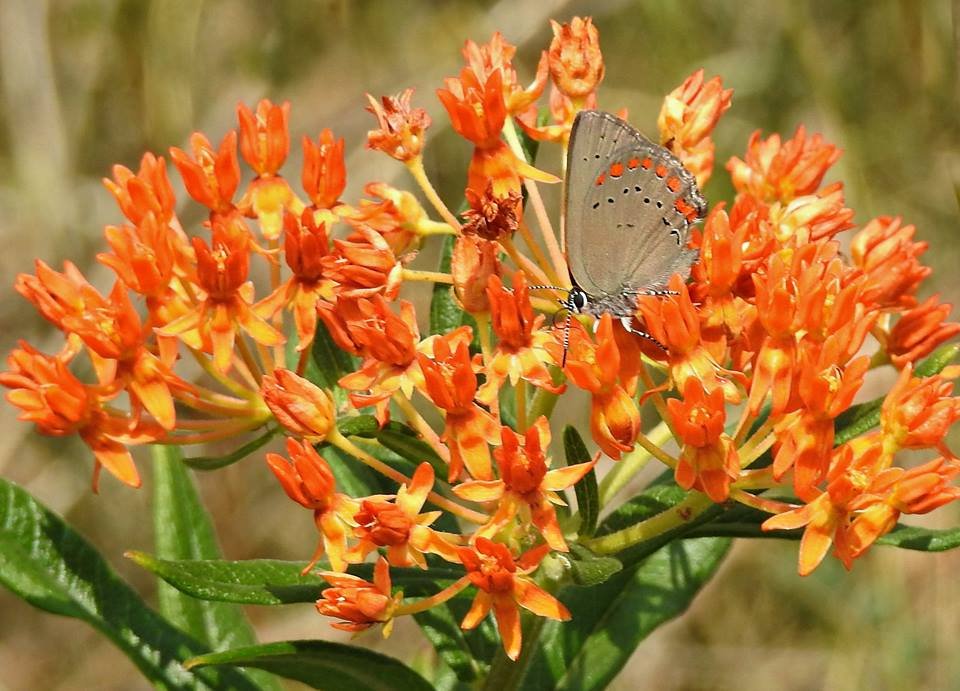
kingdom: Animalia
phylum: Arthropoda
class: Insecta
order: Lepidoptera
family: Lycaenidae
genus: Harkenclenus
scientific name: Harkenclenus titus
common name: Coral Hairstreak
